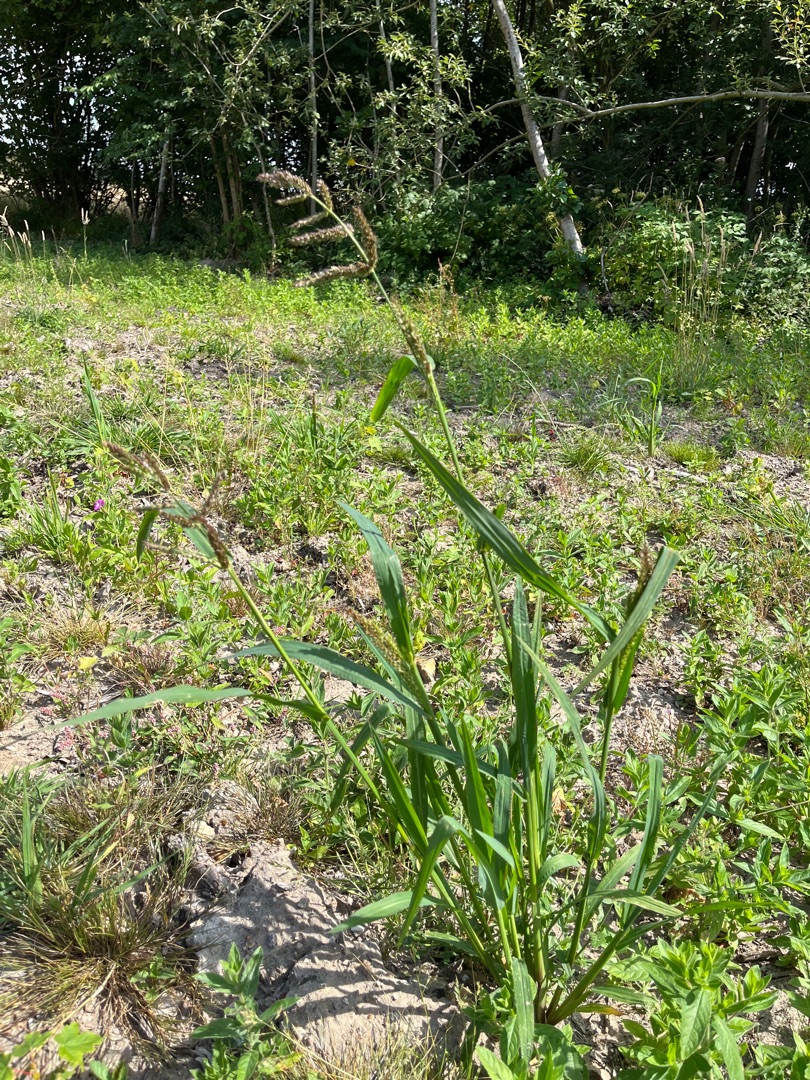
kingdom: Plantae
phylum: Tracheophyta
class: Liliopsida
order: Poales
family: Poaceae
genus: Echinochloa
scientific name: Echinochloa crus-galli
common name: Almindelig hanespore
